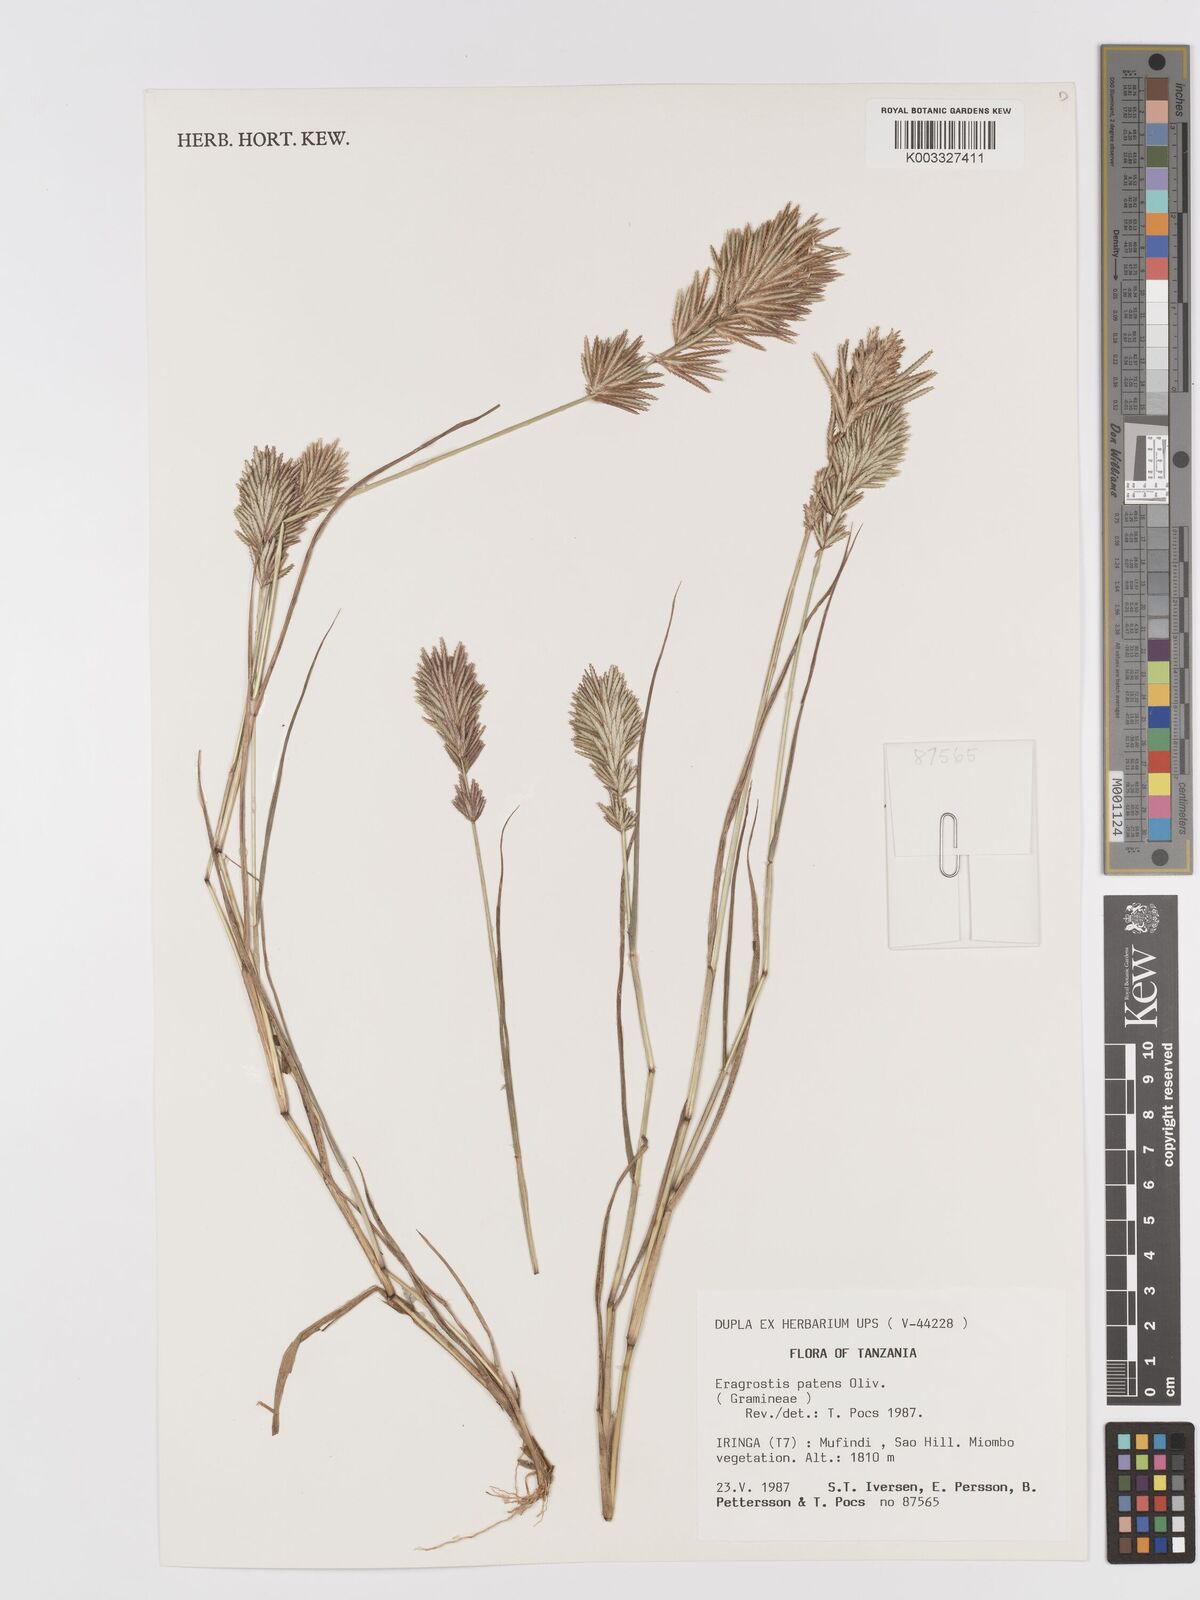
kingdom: Plantae
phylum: Tracheophyta
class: Liliopsida
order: Poales
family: Poaceae
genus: Eragrostis
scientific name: Eragrostis patens
